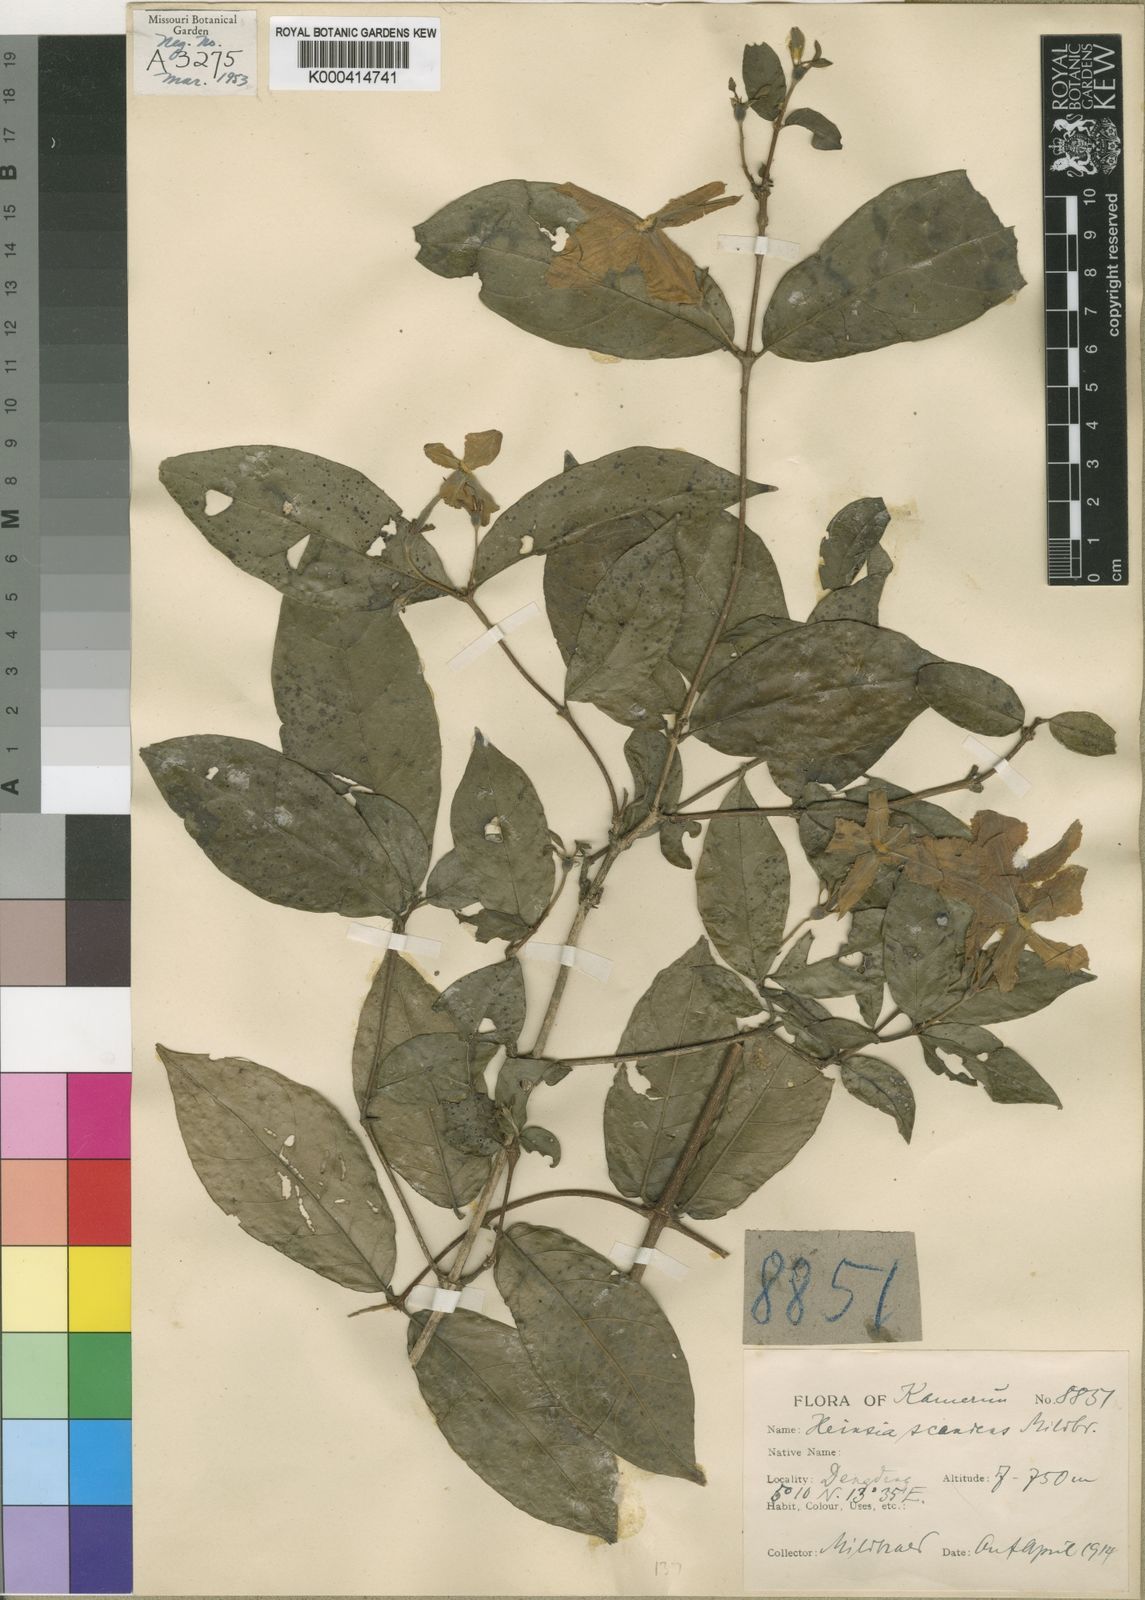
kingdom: Plantae
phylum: Tracheophyta
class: Magnoliopsida
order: Gentianales
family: Rubiaceae
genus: Heinsia
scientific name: Heinsia crinita
